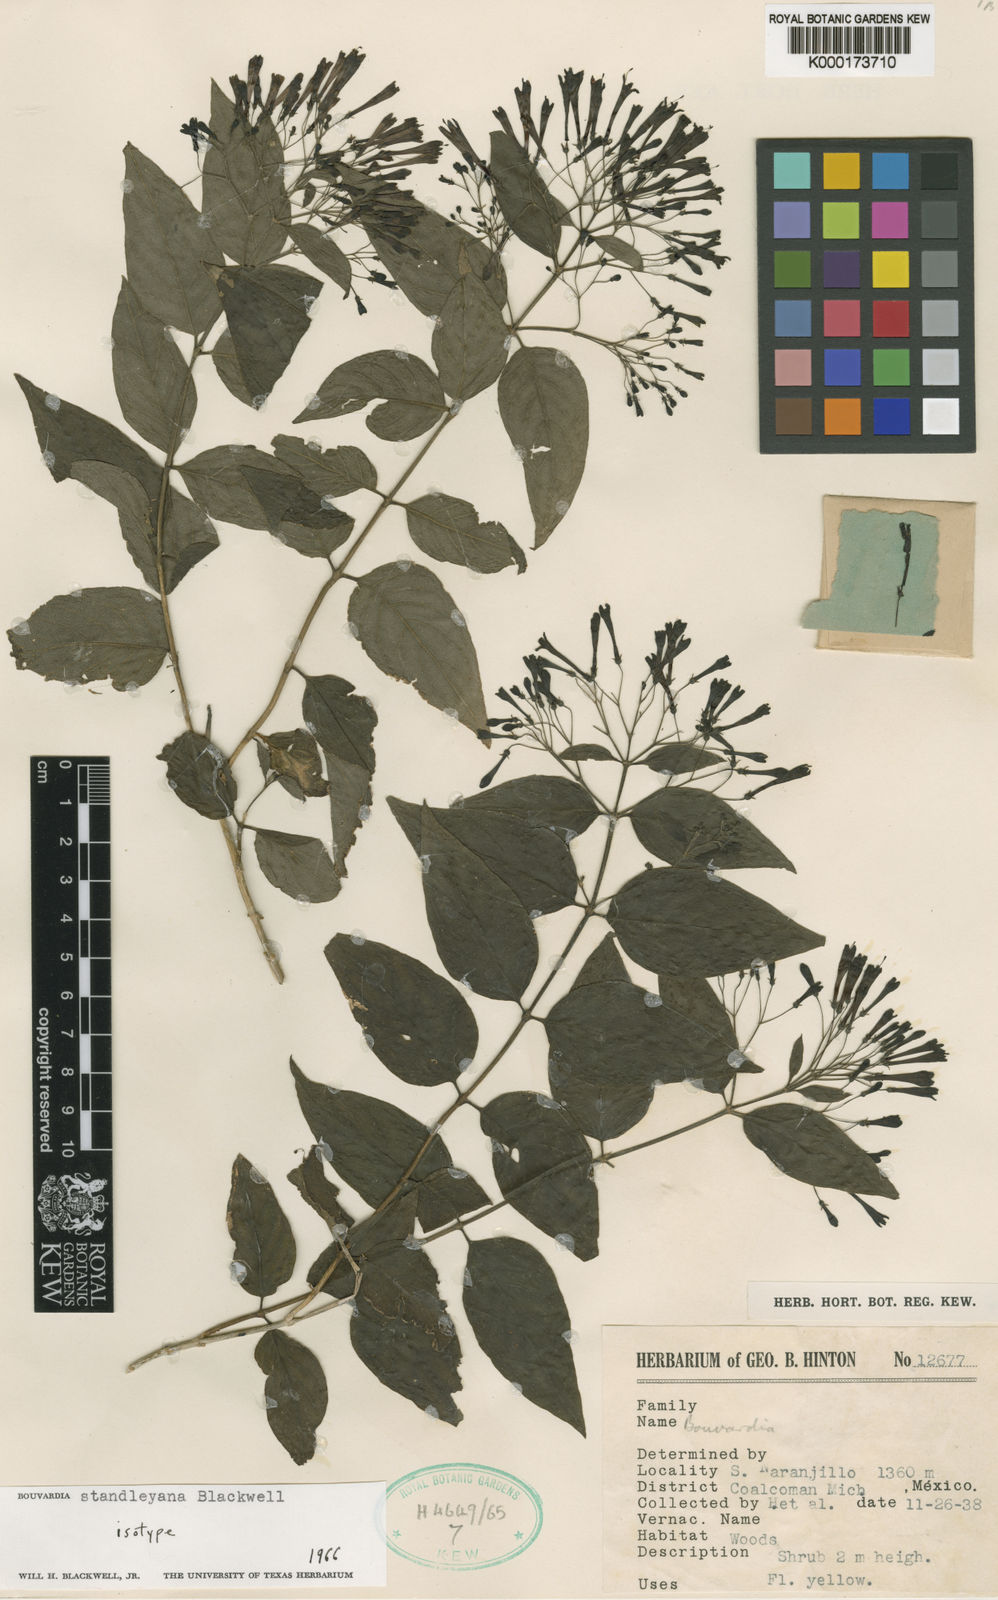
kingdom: Plantae
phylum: Tracheophyta
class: Magnoliopsida
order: Gentianales
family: Rubiaceae
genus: Bouvardia
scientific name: Bouvardia standleyana
